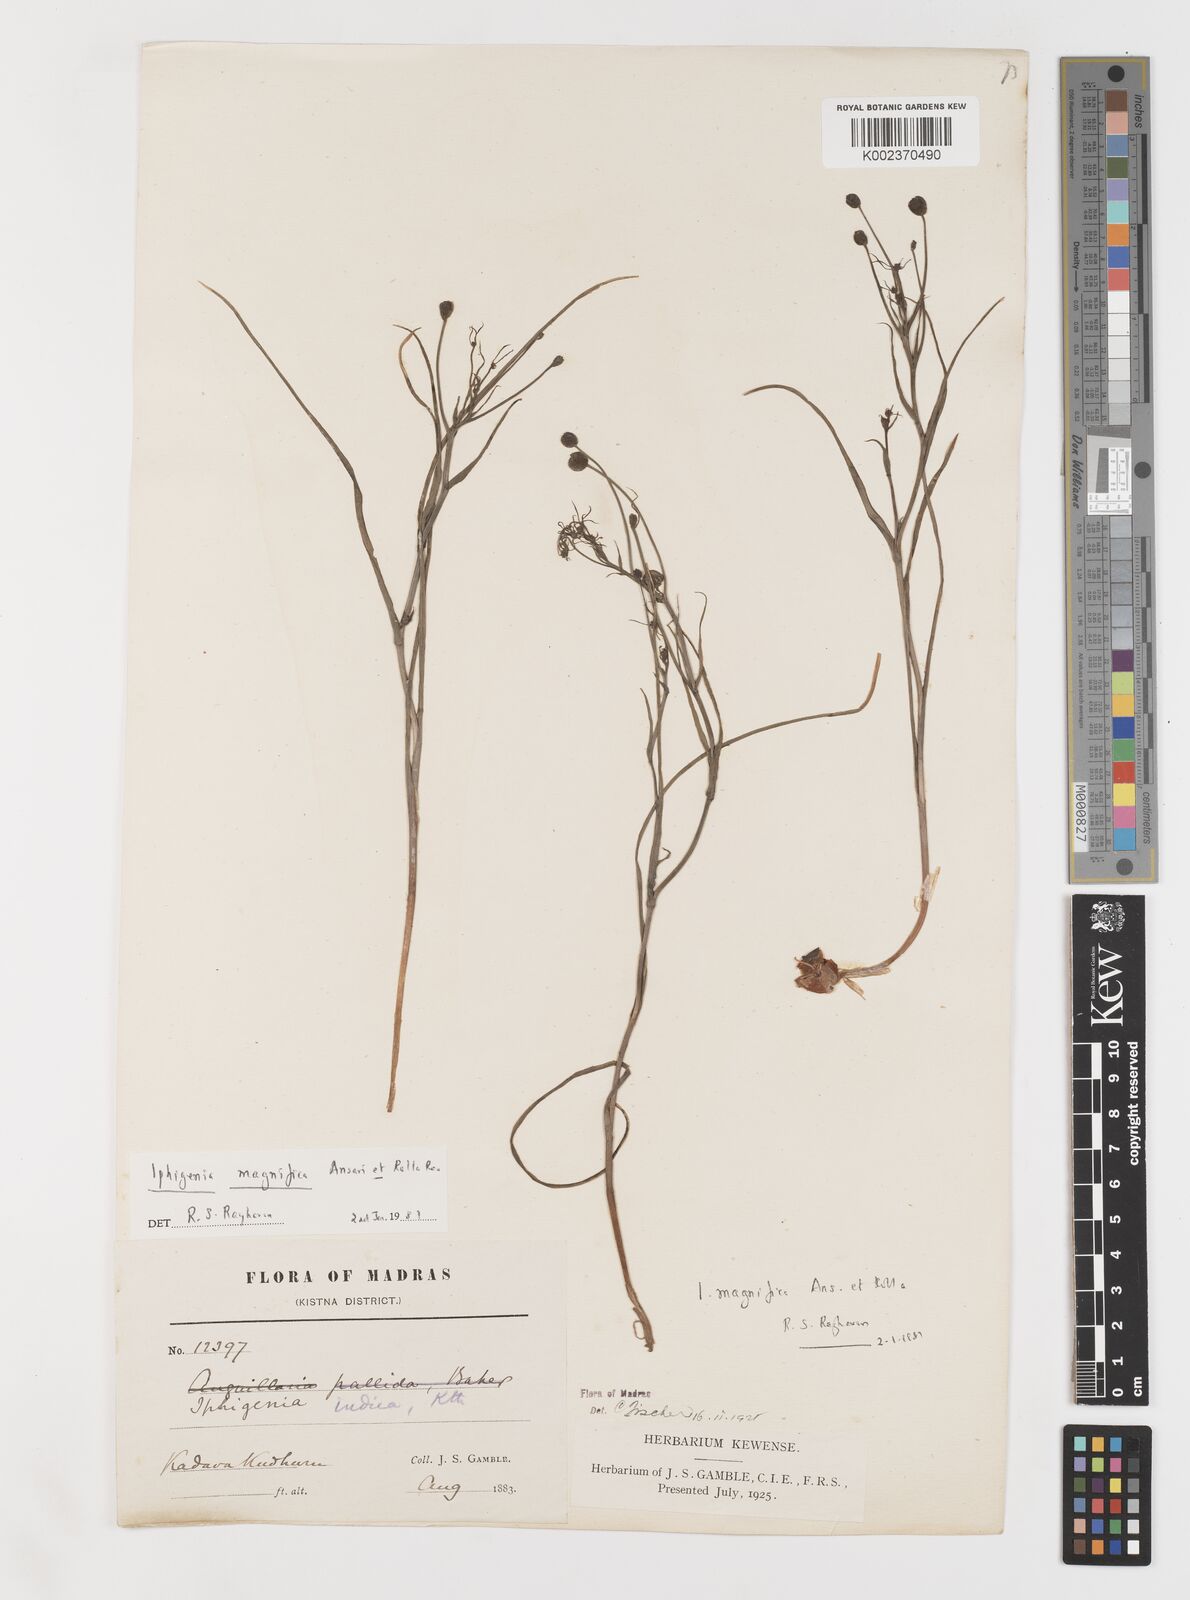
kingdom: Plantae
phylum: Tracheophyta
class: Liliopsida
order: Liliales
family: Colchicaceae
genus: Iphigenia
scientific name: Iphigenia magnifica
